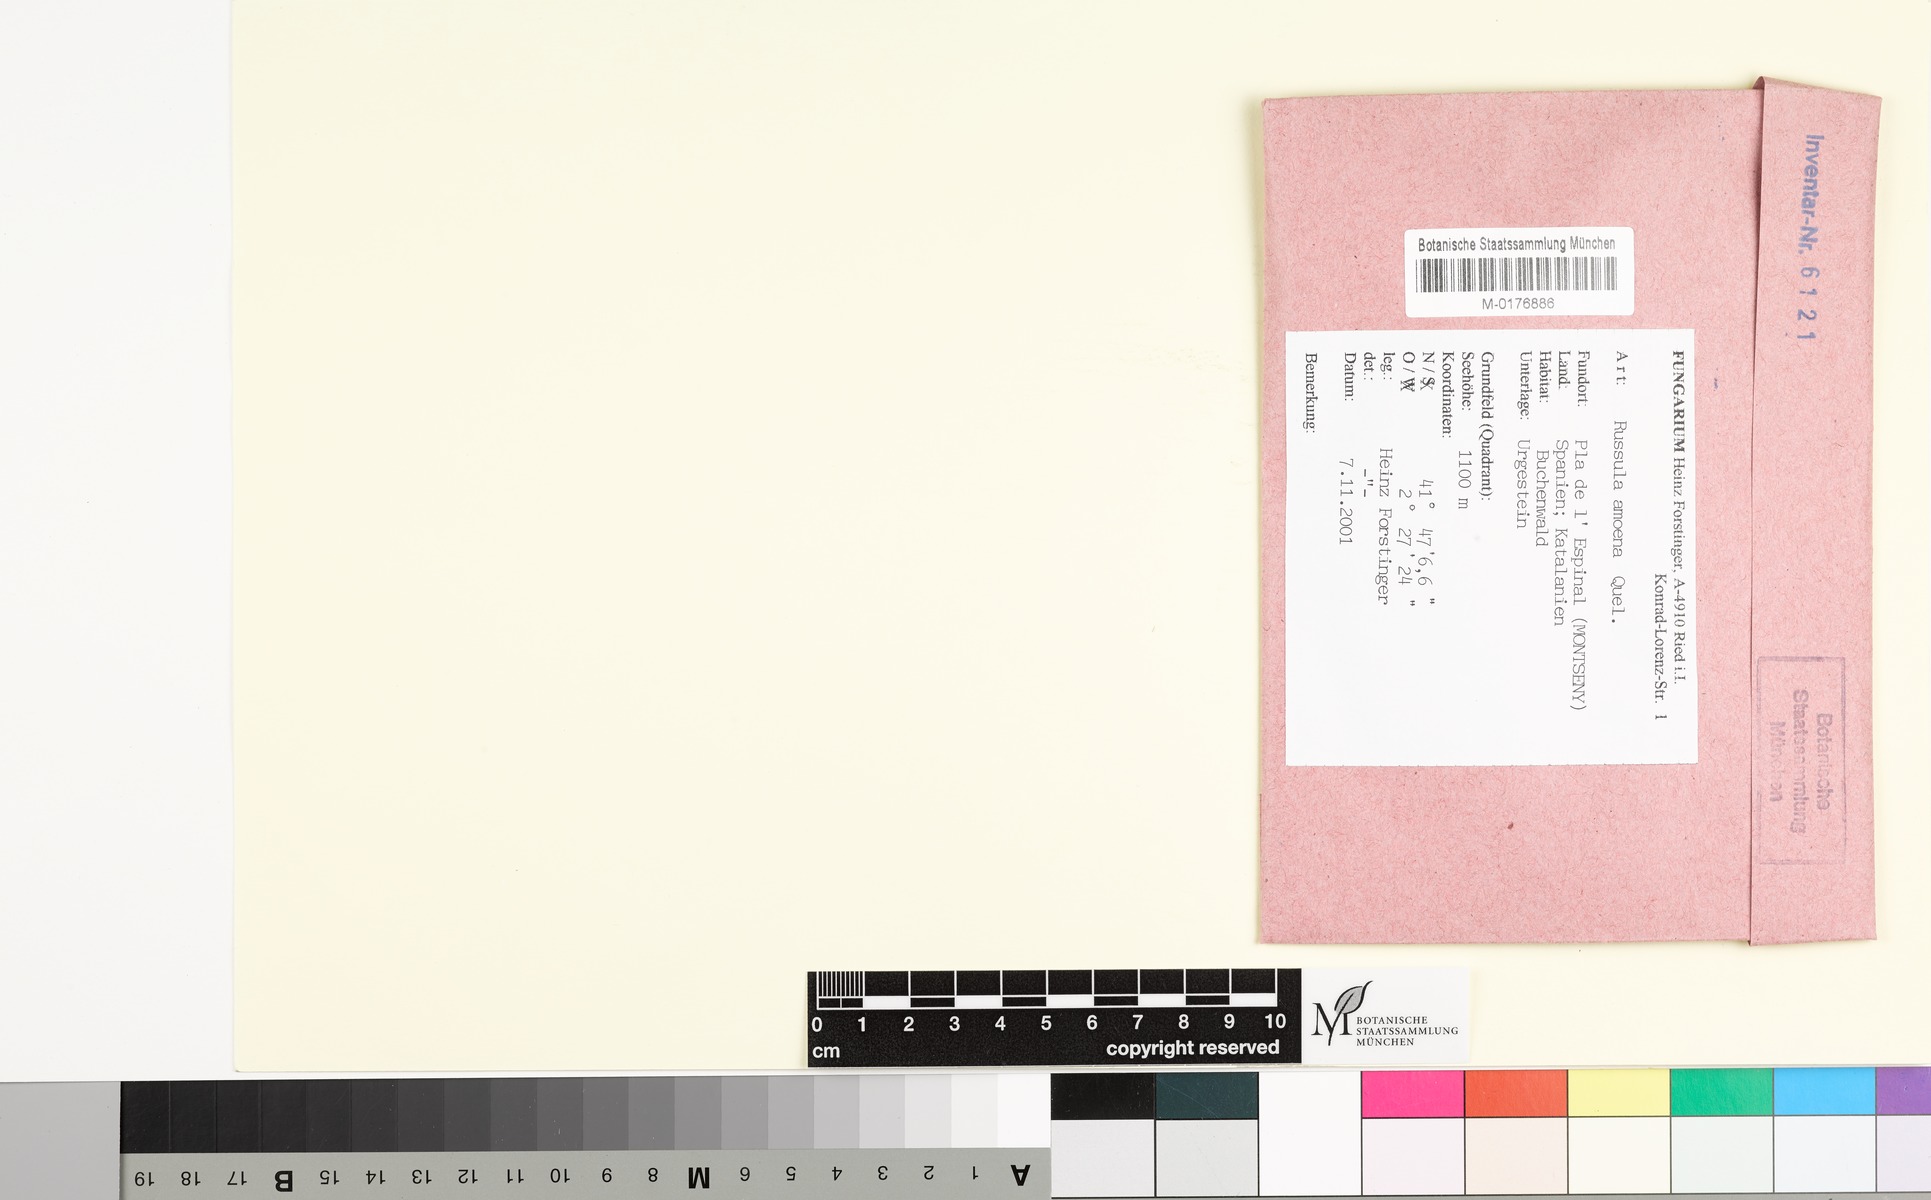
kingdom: Fungi
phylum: Basidiomycota
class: Agaricomycetes
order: Russulales
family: Russulaceae
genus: Russula
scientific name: Russula amoena
